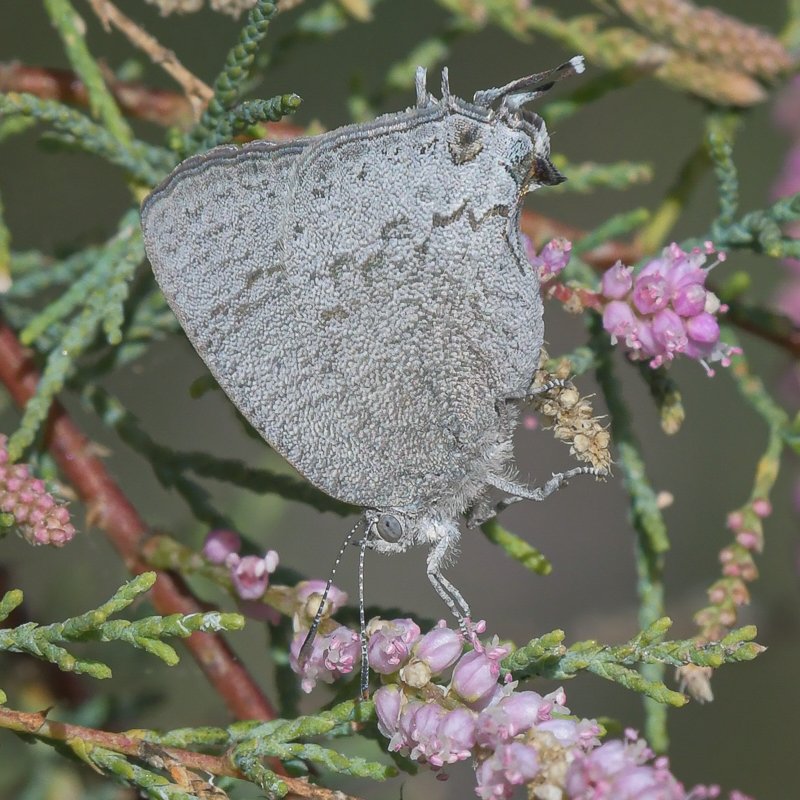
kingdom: Animalia
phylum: Arthropoda
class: Insecta
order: Lepidoptera
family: Lycaenidae
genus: Hypostrymon
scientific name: Hypostrymon critola
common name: Sonoran Hairstreak
